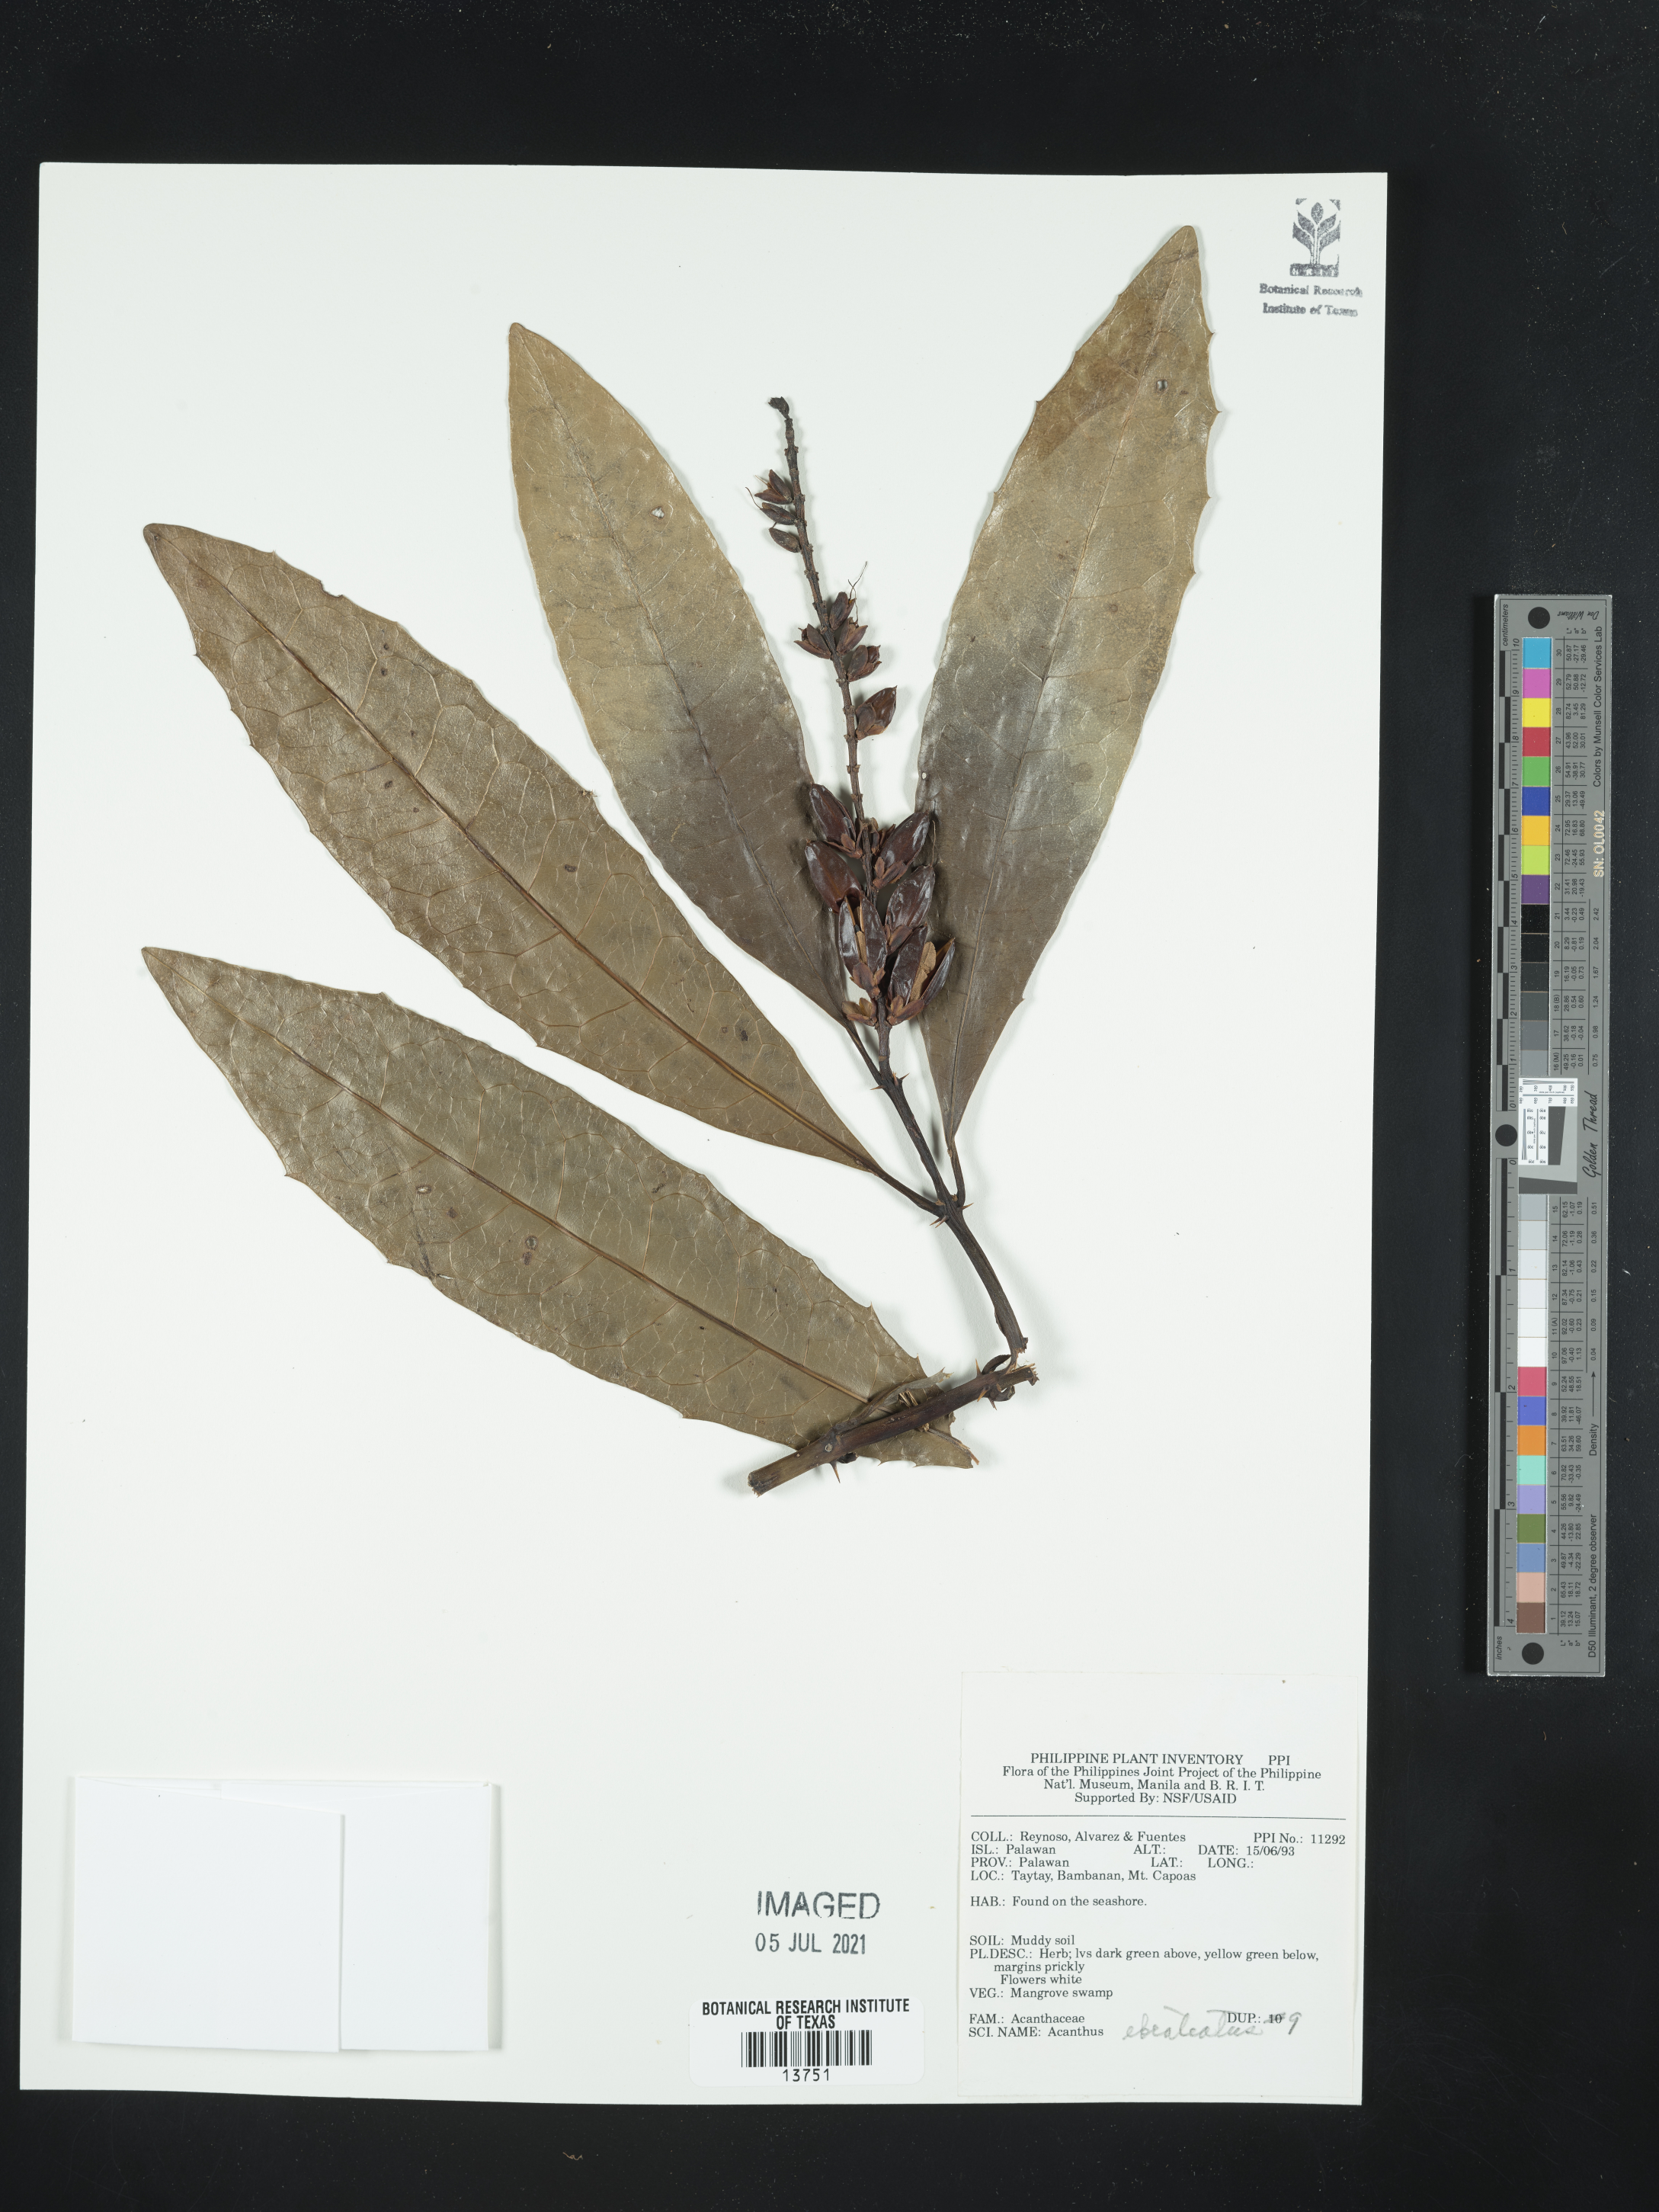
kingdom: Plantae
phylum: Tracheophyta
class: Magnoliopsida
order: Lamiales
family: Acanthaceae
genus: Acanthus
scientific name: Acanthus ebracteatus
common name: Acanthus
